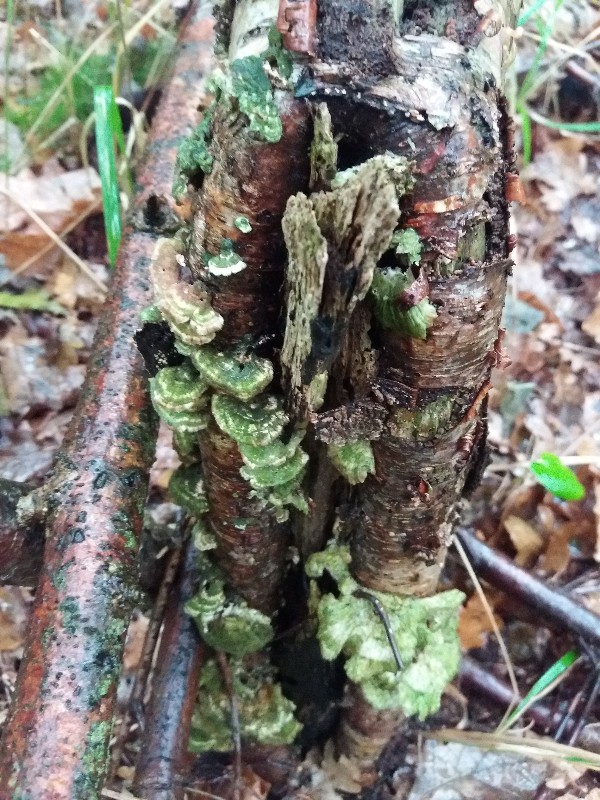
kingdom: Fungi
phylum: Basidiomycota
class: Agaricomycetes
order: Polyporales
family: Polyporaceae
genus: Trametes
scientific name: Trametes hirsuta
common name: håret læderporesvamp
